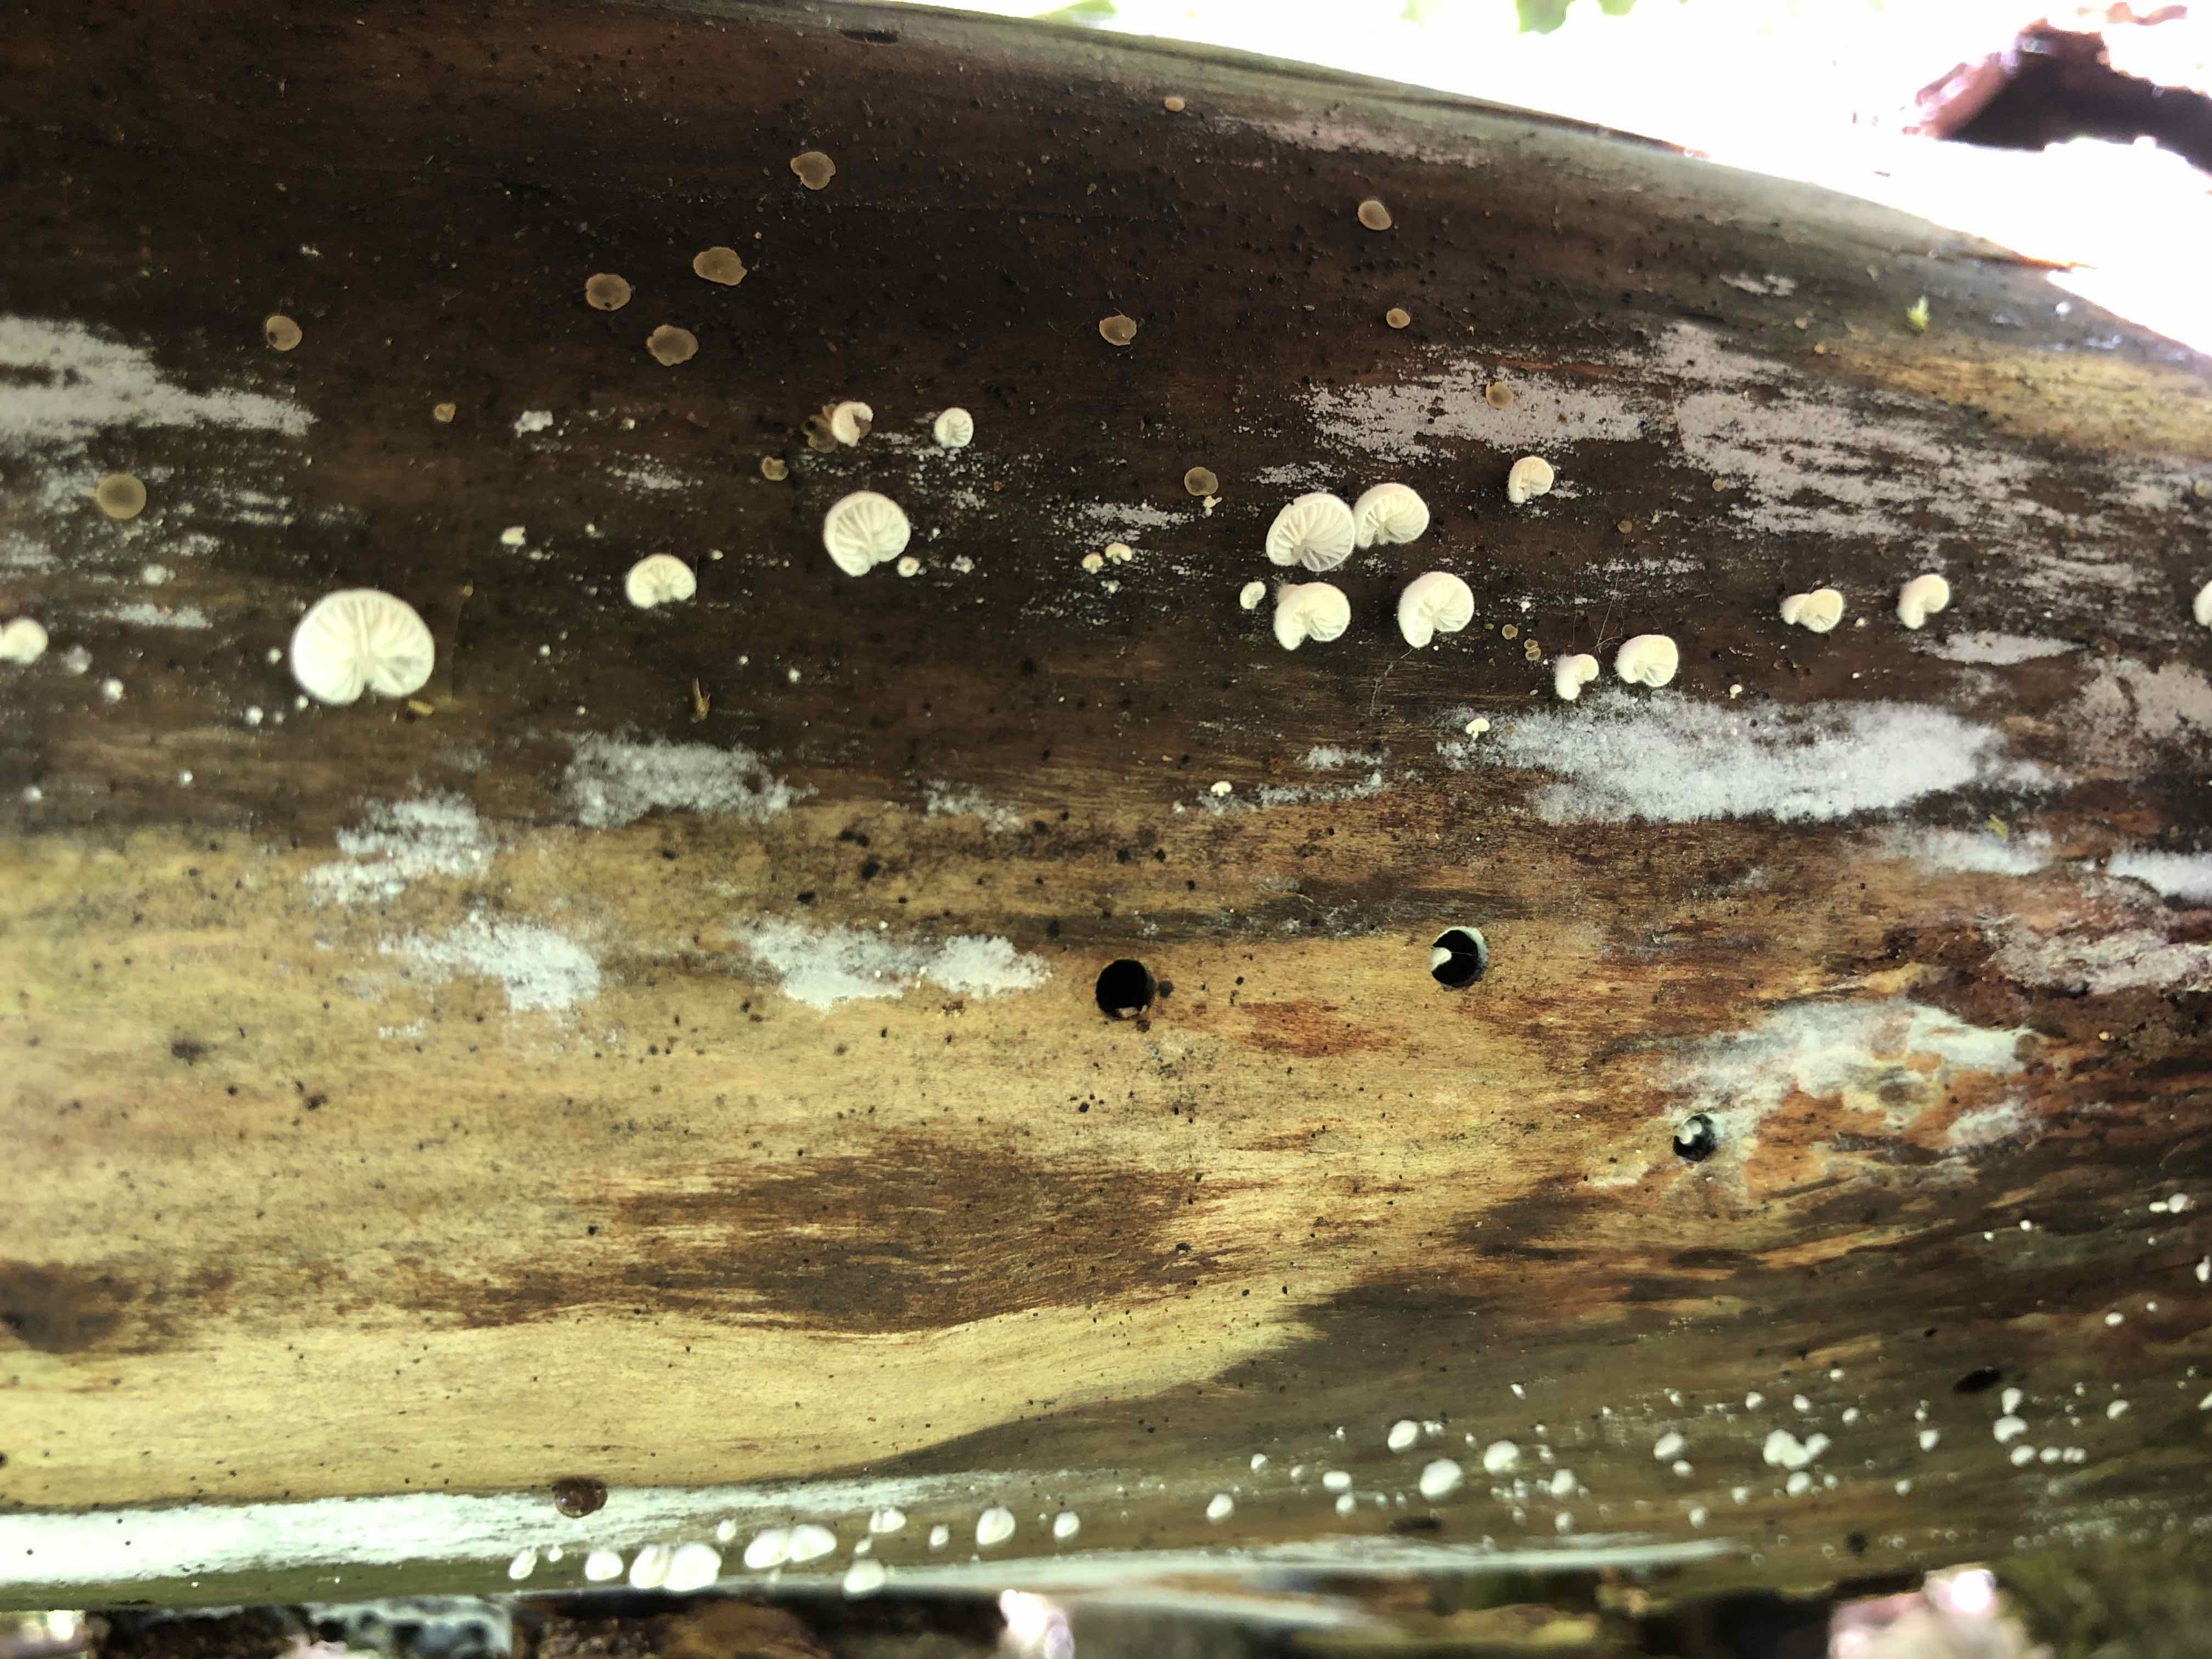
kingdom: Fungi
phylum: Basidiomycota
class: Agaricomycetes
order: Agaricales
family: Entolomataceae
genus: Clitopilus
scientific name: Clitopilus hobsonii
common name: Miller's oysterling
